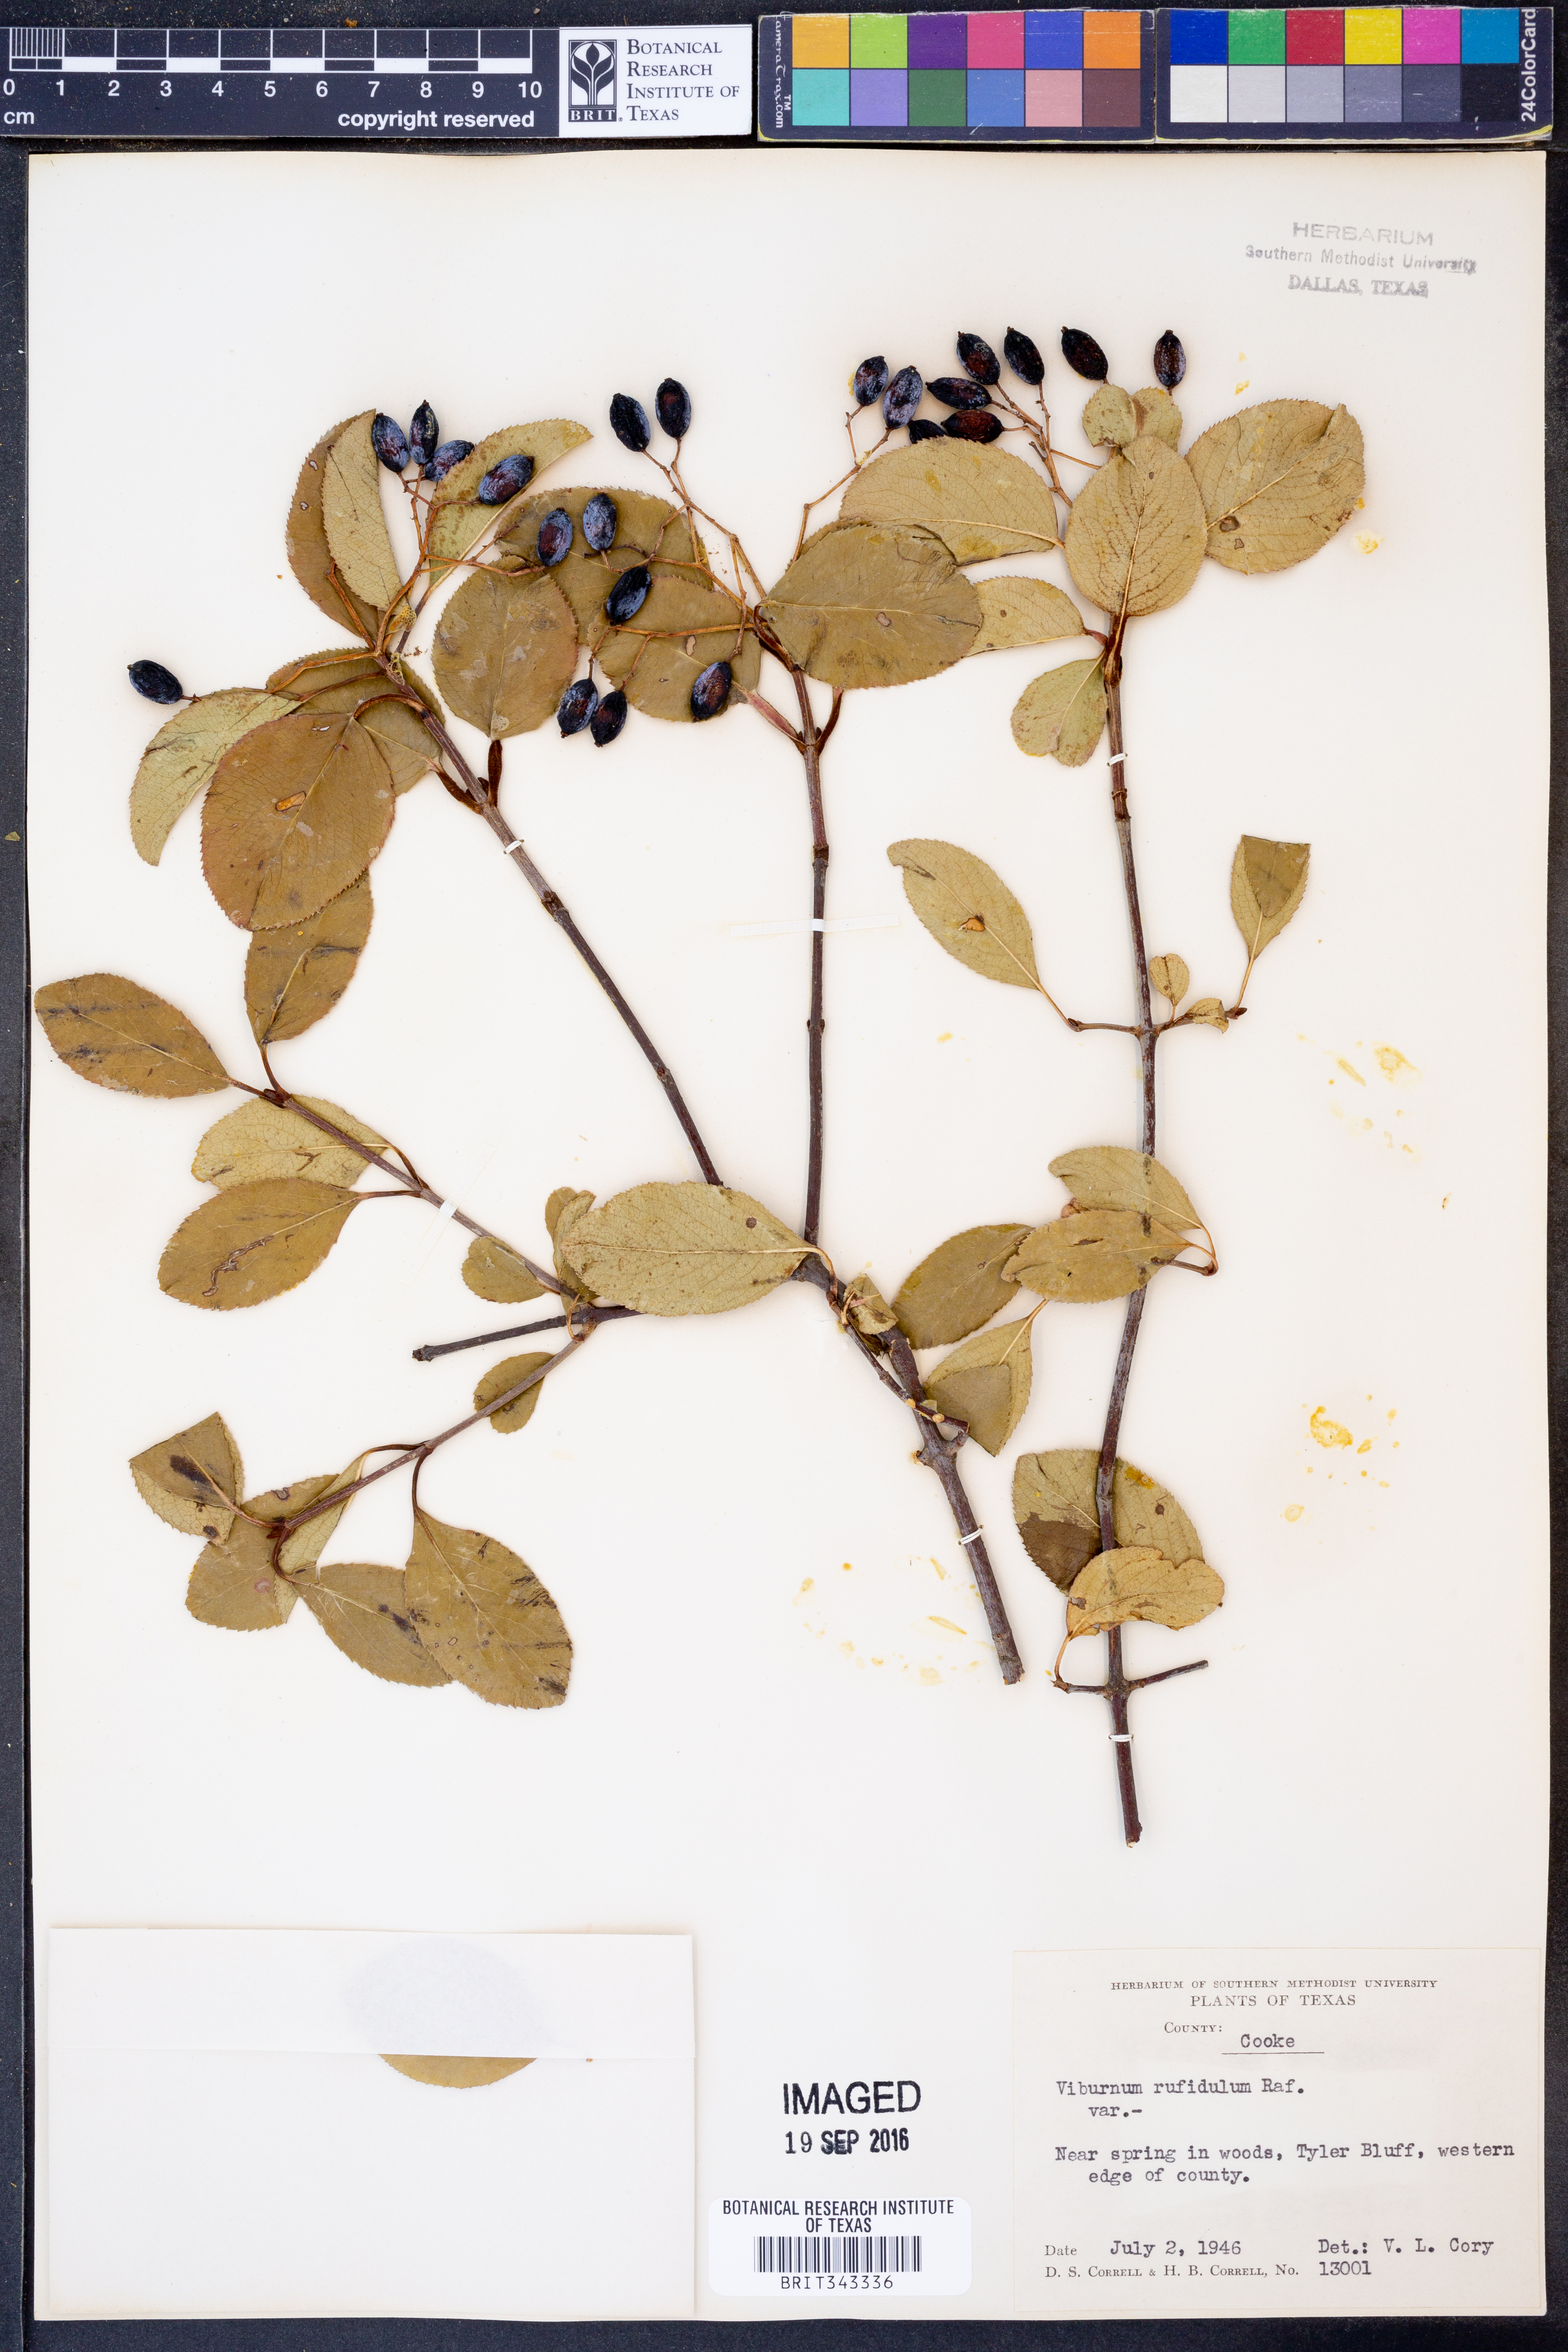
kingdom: Plantae
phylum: Tracheophyta
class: Magnoliopsida
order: Dipsacales
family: Viburnaceae
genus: Viburnum
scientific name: Viburnum rufidulum
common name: Blue haw
